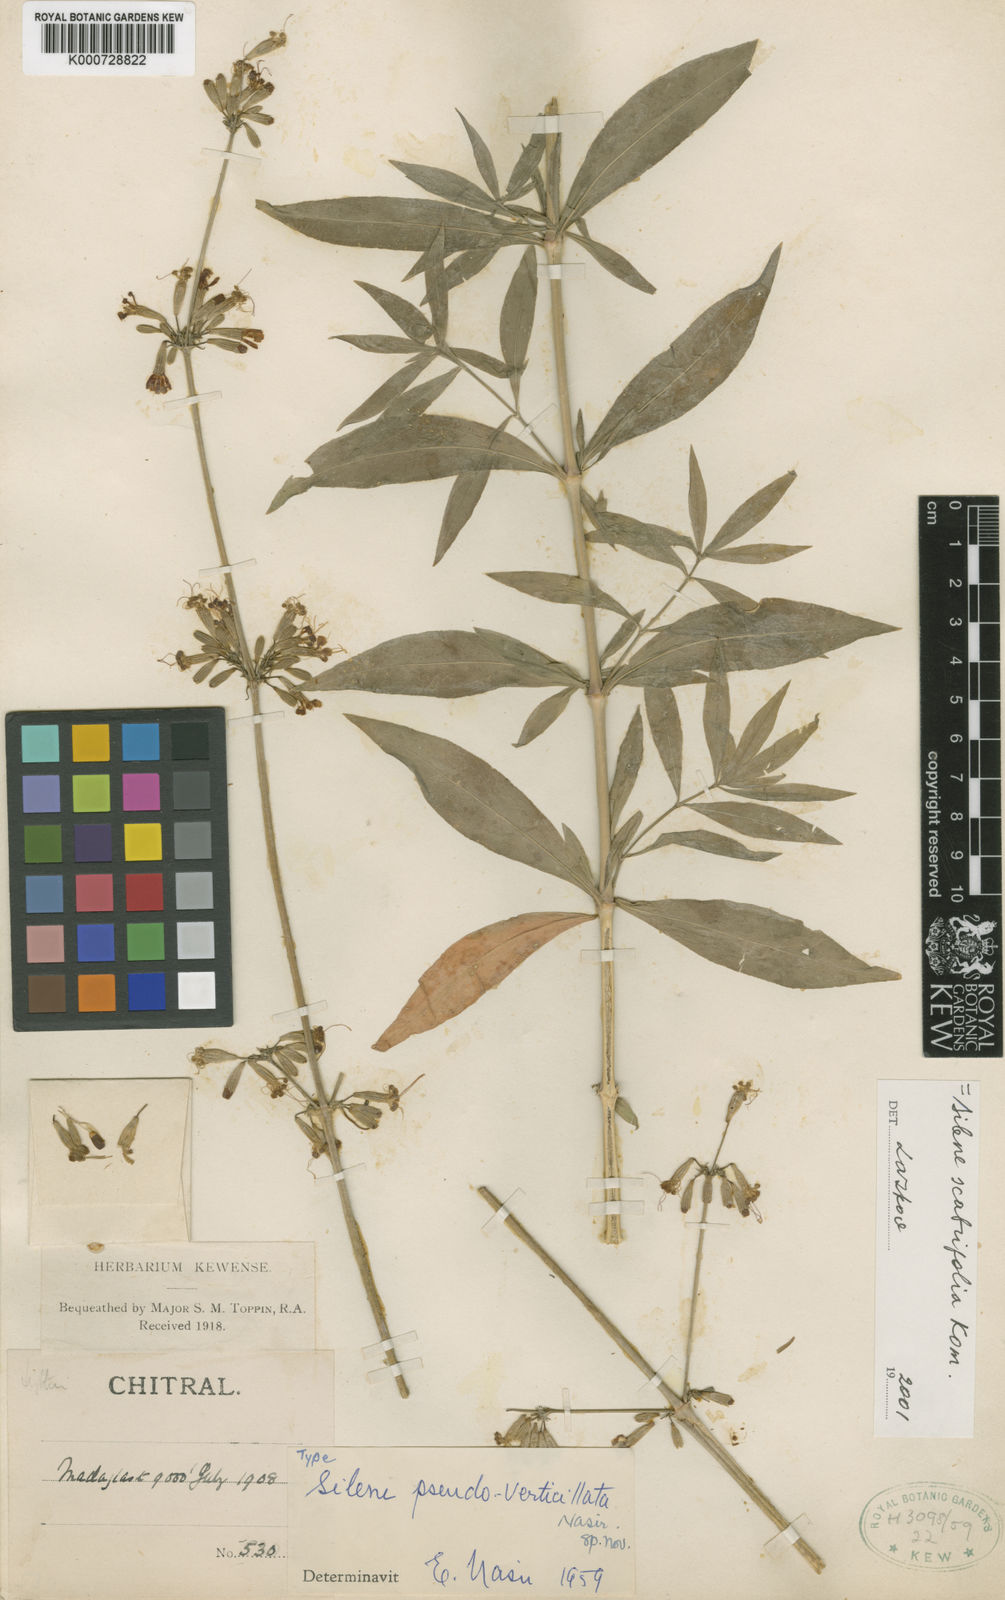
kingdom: Plantae
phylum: Tracheophyta
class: Magnoliopsida
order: Caryophyllales
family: Caryophyllaceae
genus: Silene
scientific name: Silene pseudoverticillata
